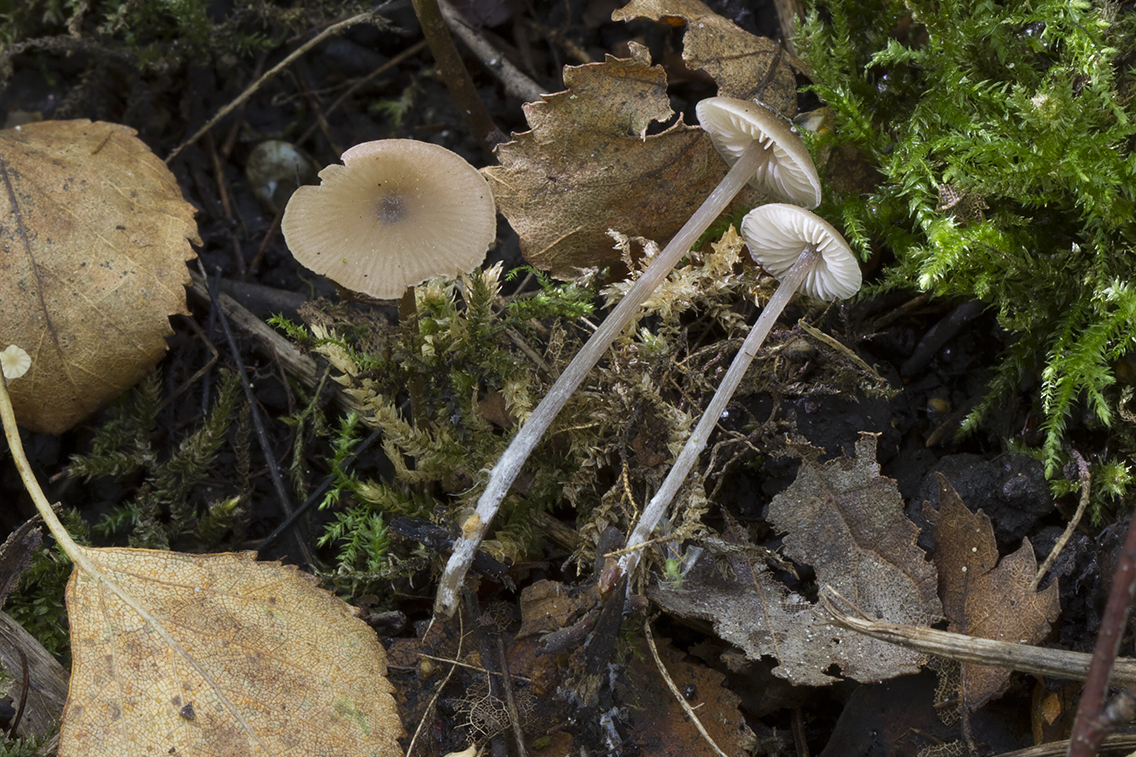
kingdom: Fungi
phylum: Basidiomycota
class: Agaricomycetes
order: Agaricales
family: Entolomataceae
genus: Entoloma
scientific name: Entoloma hebes
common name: krat-rødblad
